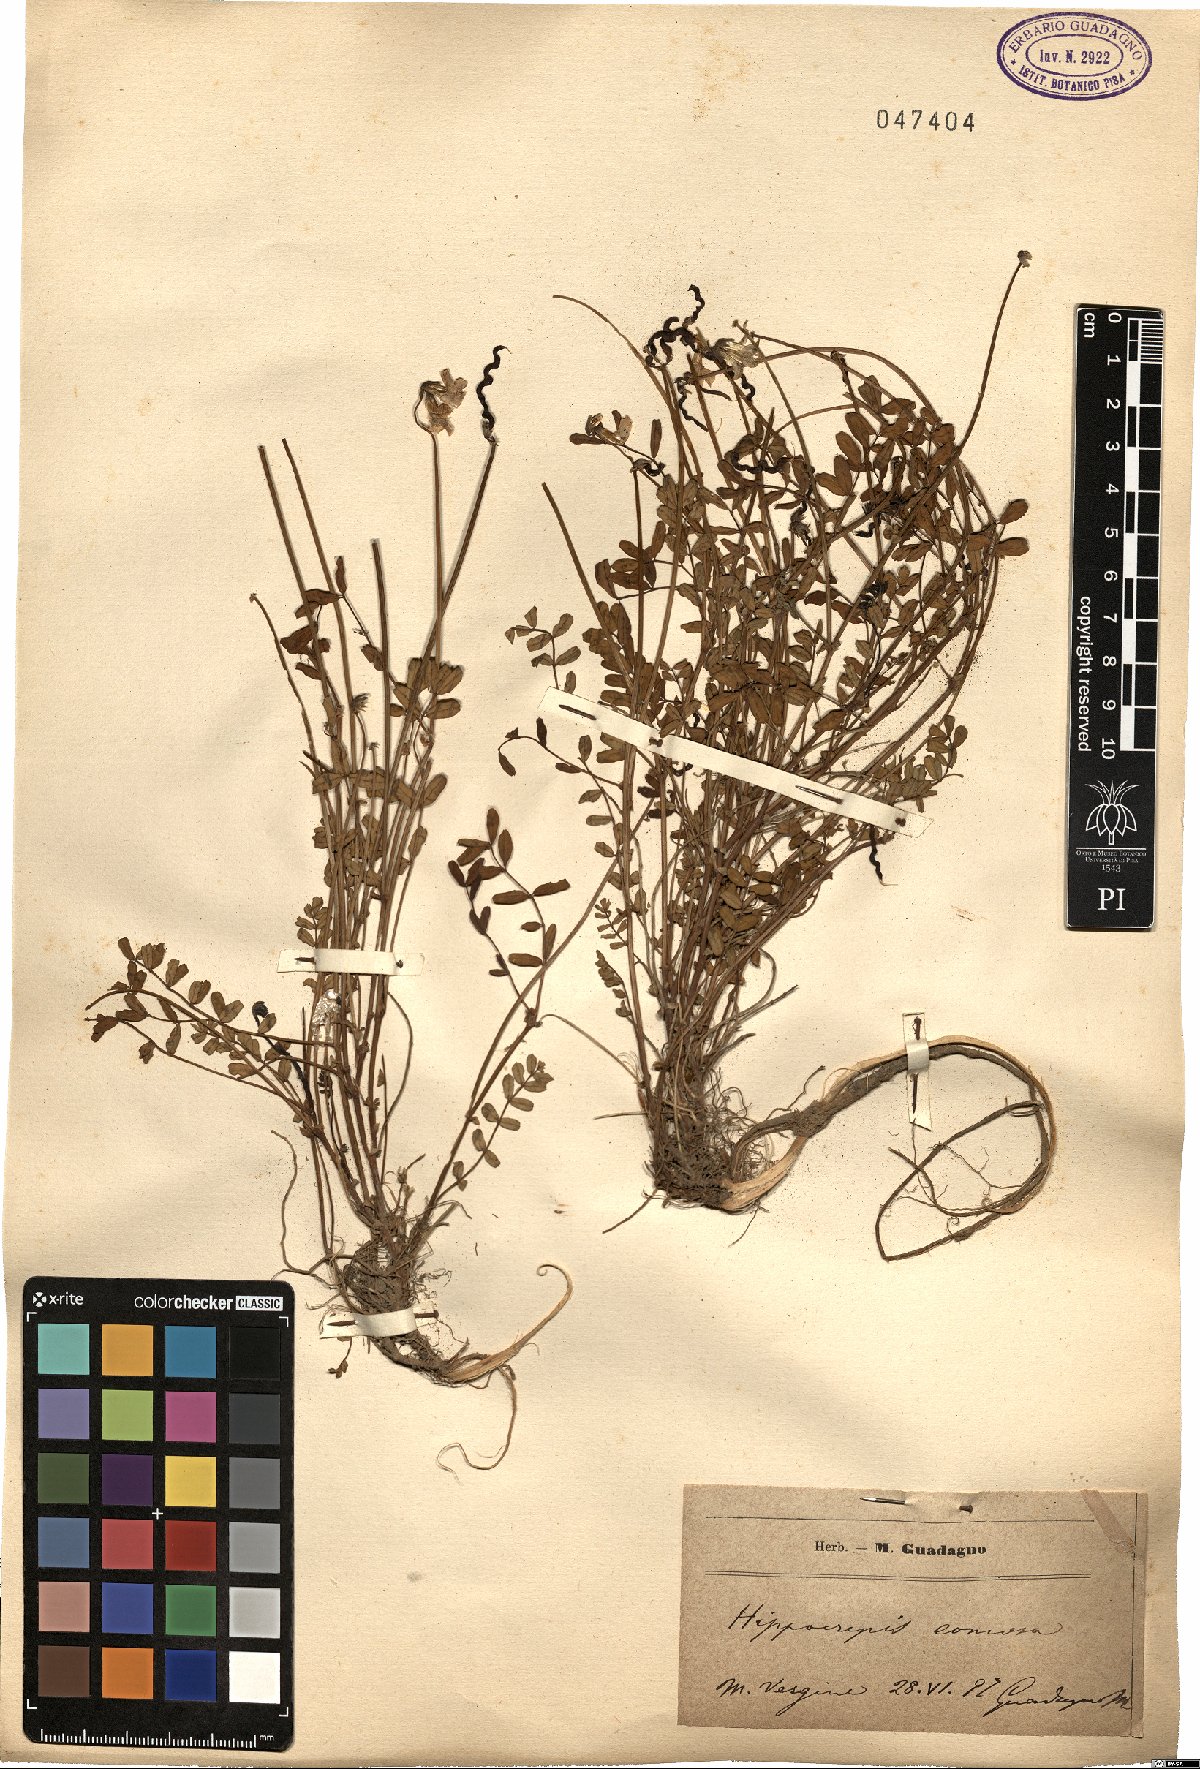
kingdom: Plantae
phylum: Tracheophyta
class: Magnoliopsida
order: Fabales
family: Fabaceae
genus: Hippocrepis
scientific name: Hippocrepis comosa
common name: Horseshoe vetch
